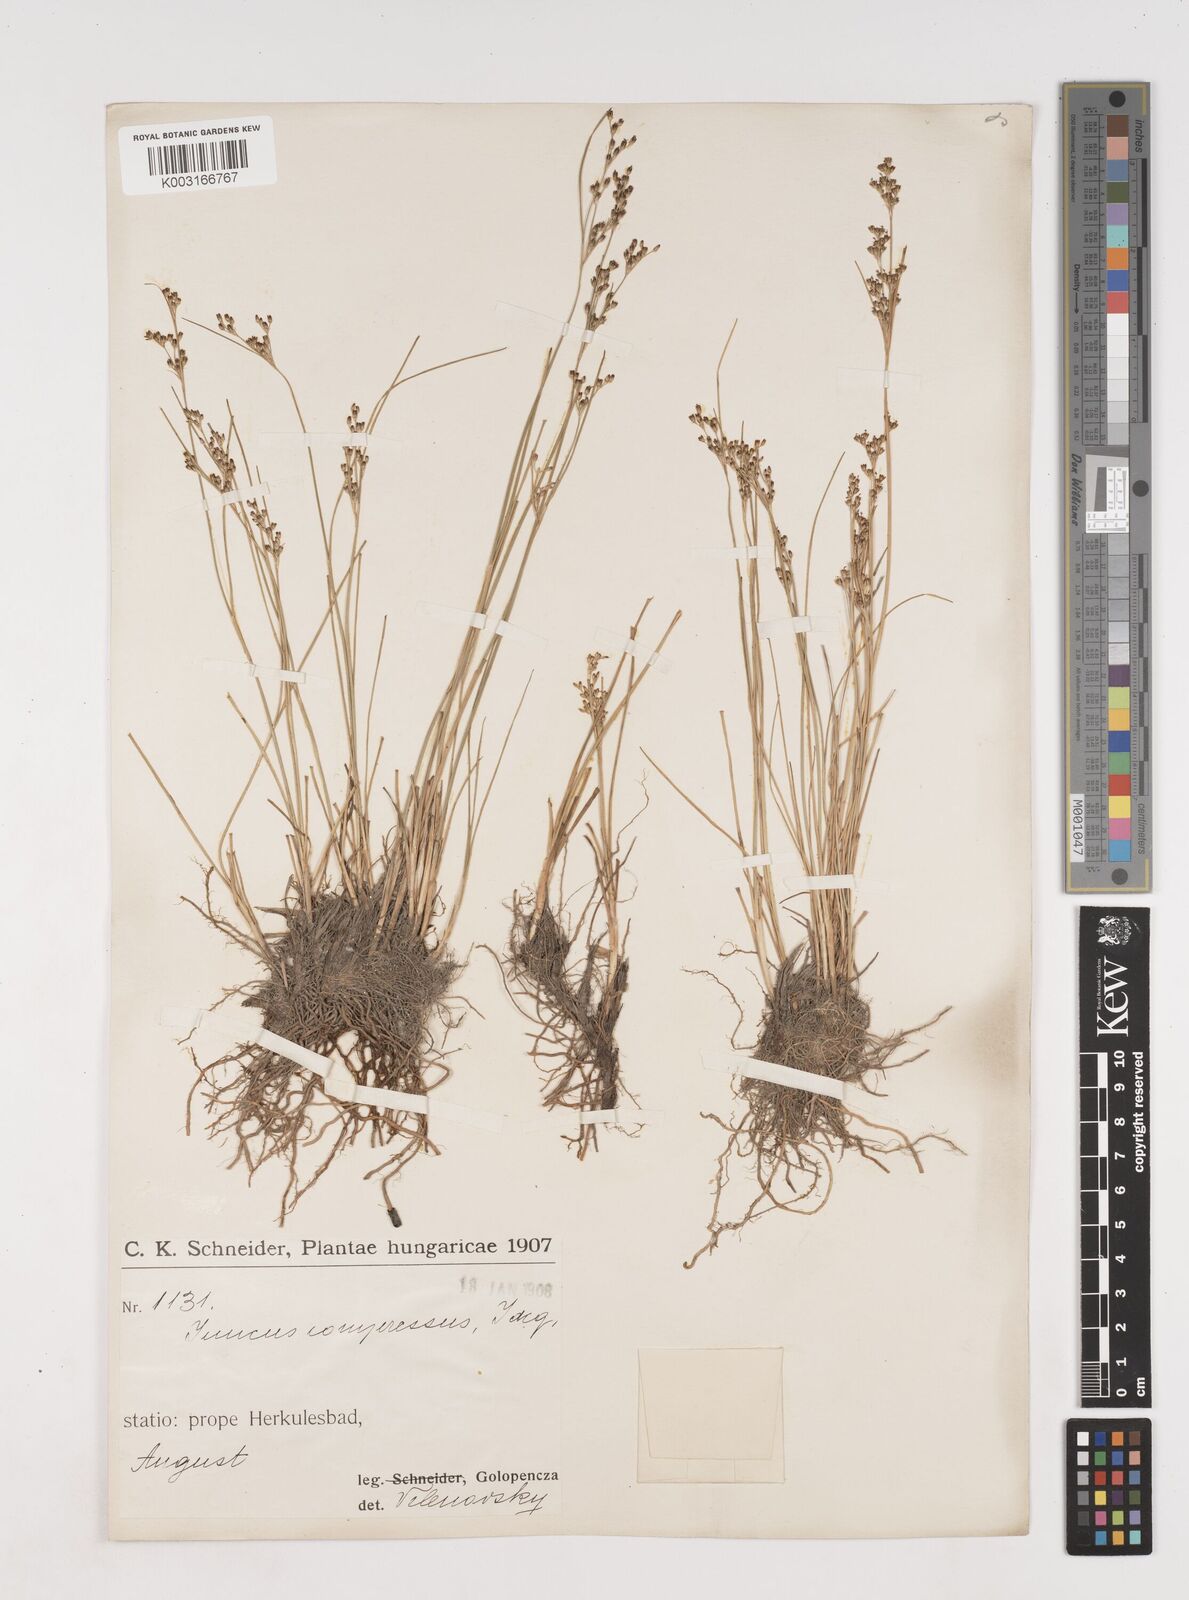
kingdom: Plantae
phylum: Tracheophyta
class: Liliopsida
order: Poales
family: Juncaceae
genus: Juncus
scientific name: Juncus
